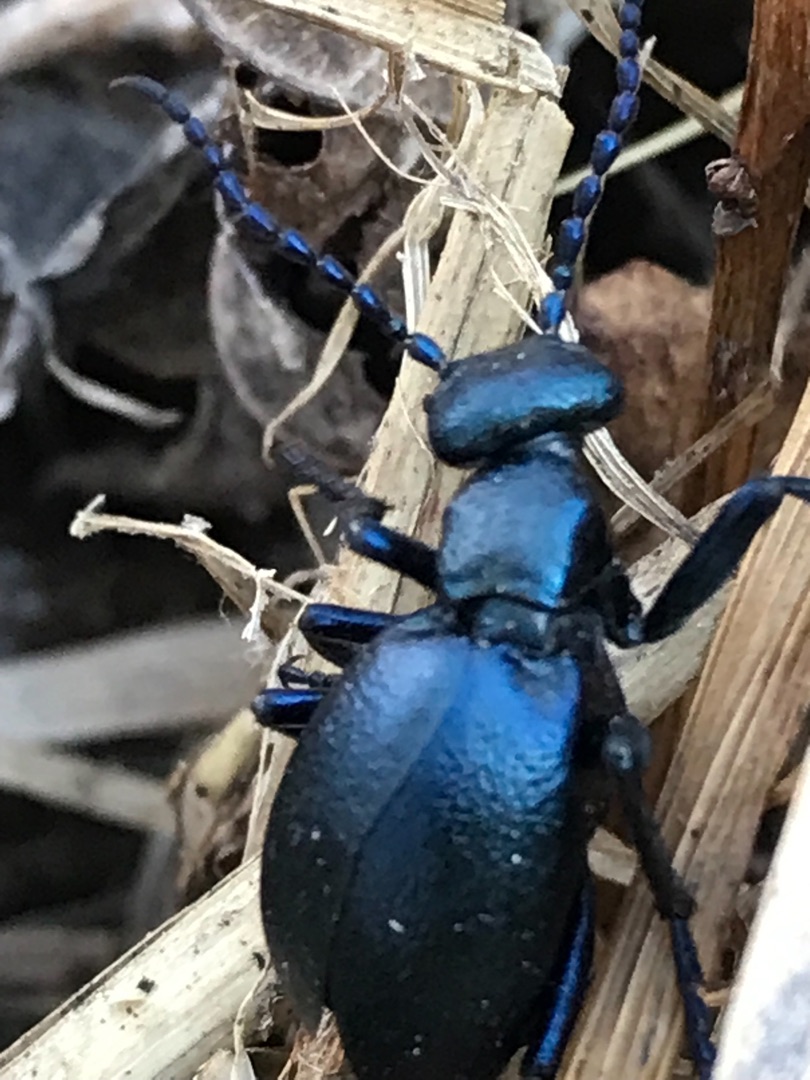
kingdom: Animalia
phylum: Arthropoda
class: Insecta
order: Coleoptera
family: Meloidae
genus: Meloe
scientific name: Meloe violaceus
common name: Blå oliebille
